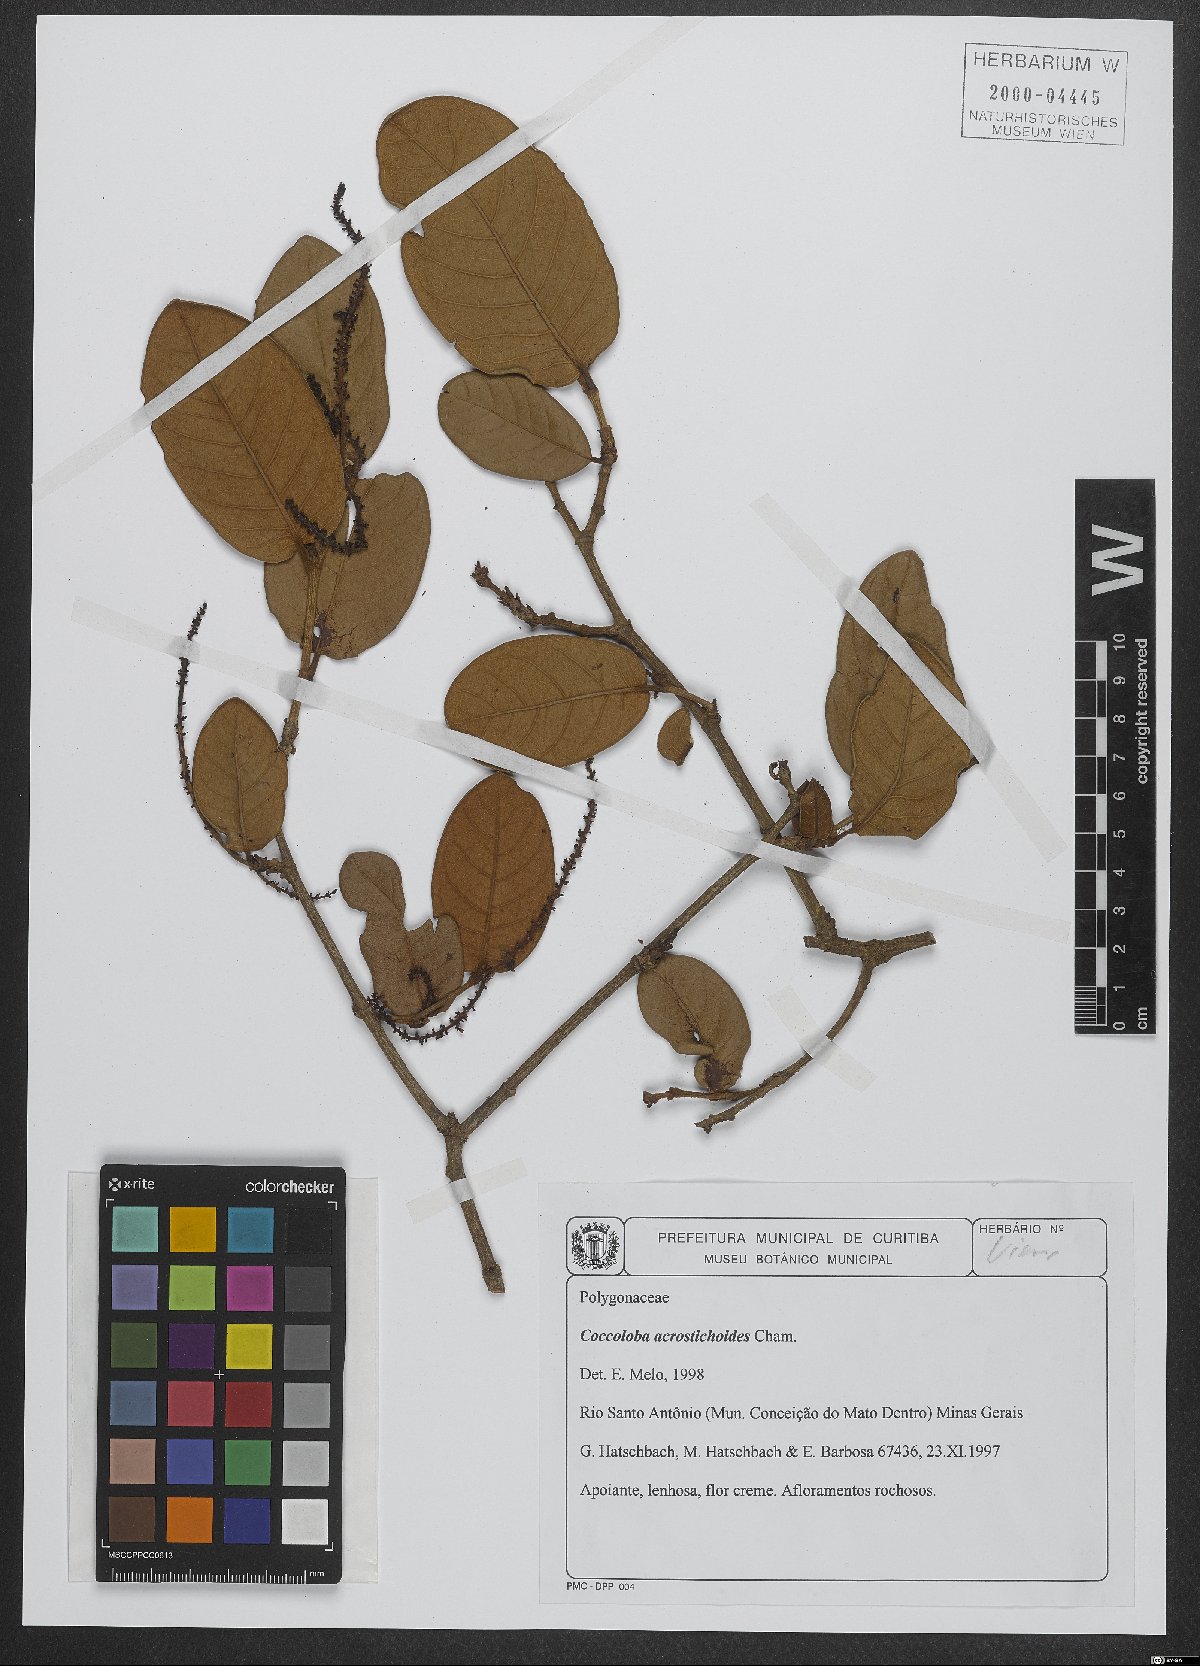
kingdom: Plantae
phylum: Tracheophyta
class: Magnoliopsida
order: Caryophyllales
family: Polygonaceae
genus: Coccoloba
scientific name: Coccoloba acrostichoides
